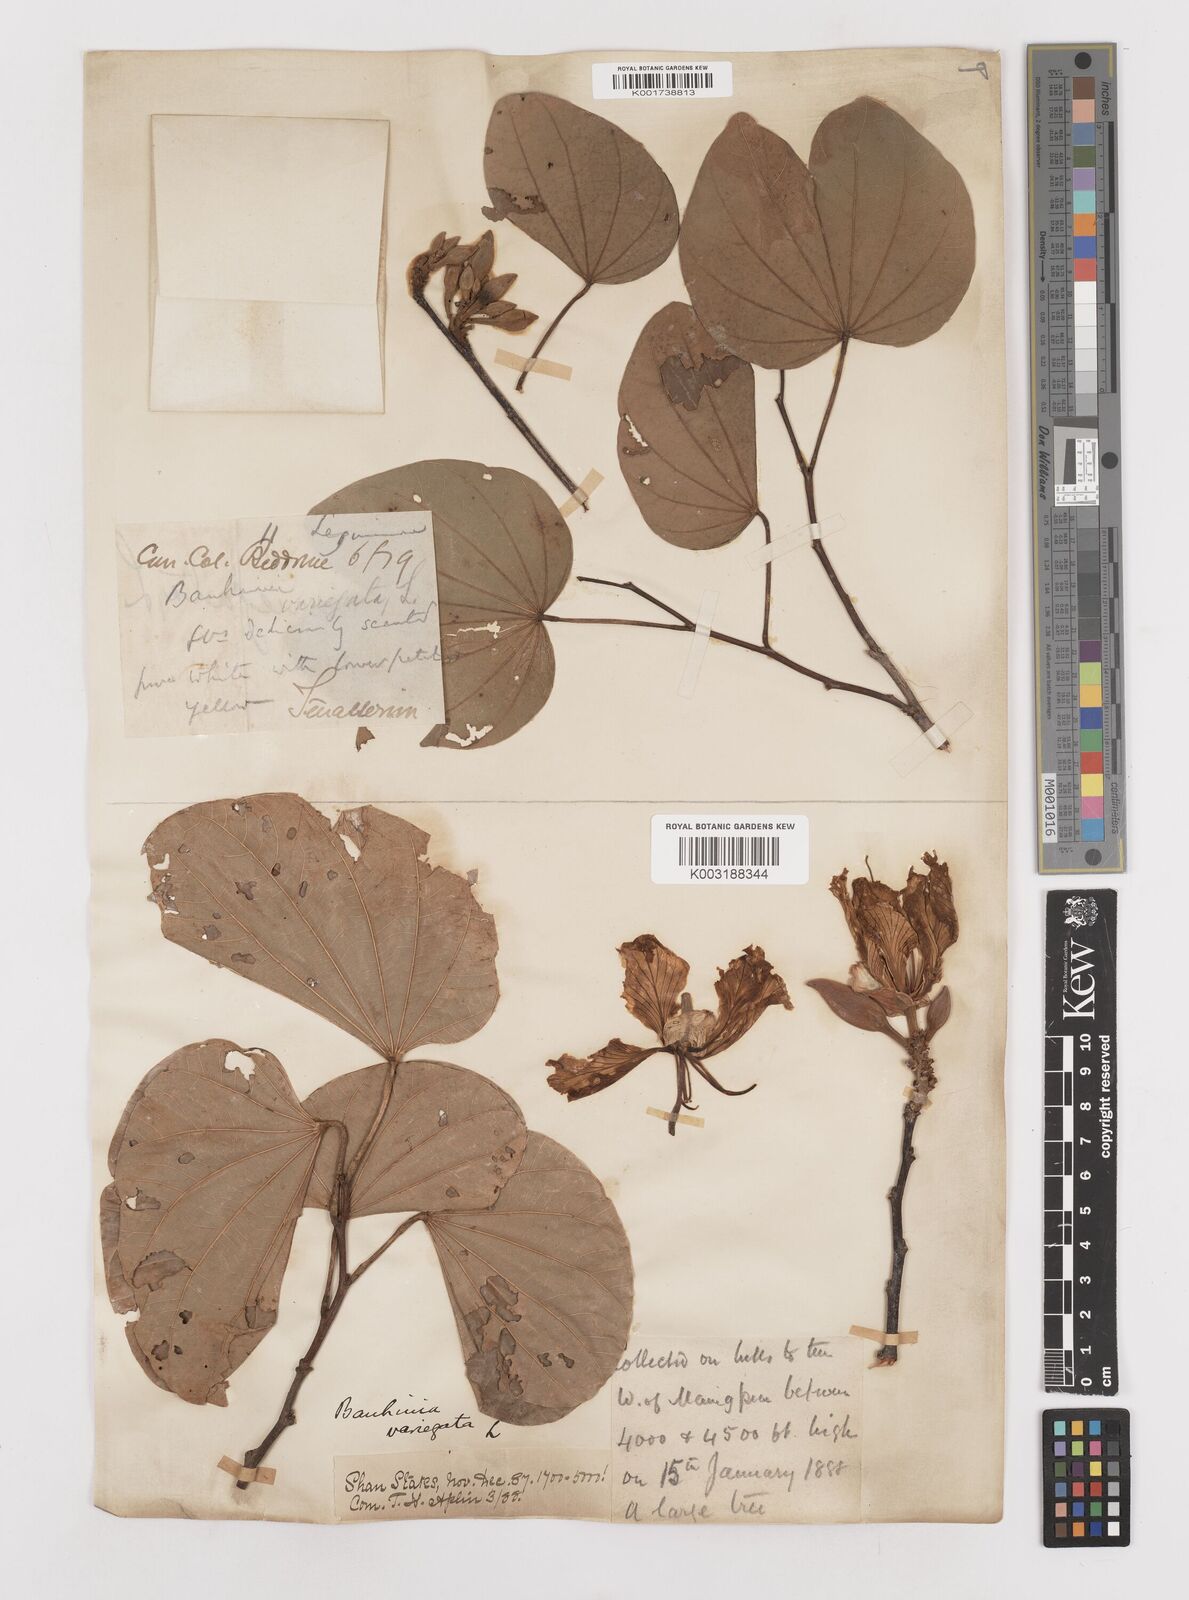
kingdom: Plantae
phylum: Tracheophyta
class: Magnoliopsida
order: Fabales
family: Fabaceae
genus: Bauhinia
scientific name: Bauhinia variegata
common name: Mountain ebony
